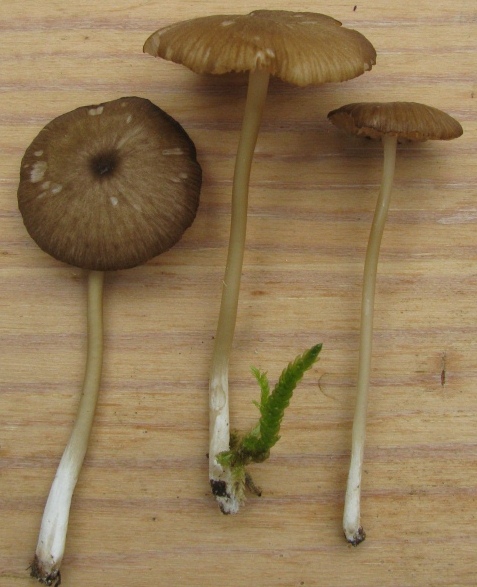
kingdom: Fungi
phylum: Basidiomycota
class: Agaricomycetes
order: Agaricales
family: Entolomataceae
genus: Entoloma
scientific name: Entoloma exile
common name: rødplettet rødblad
